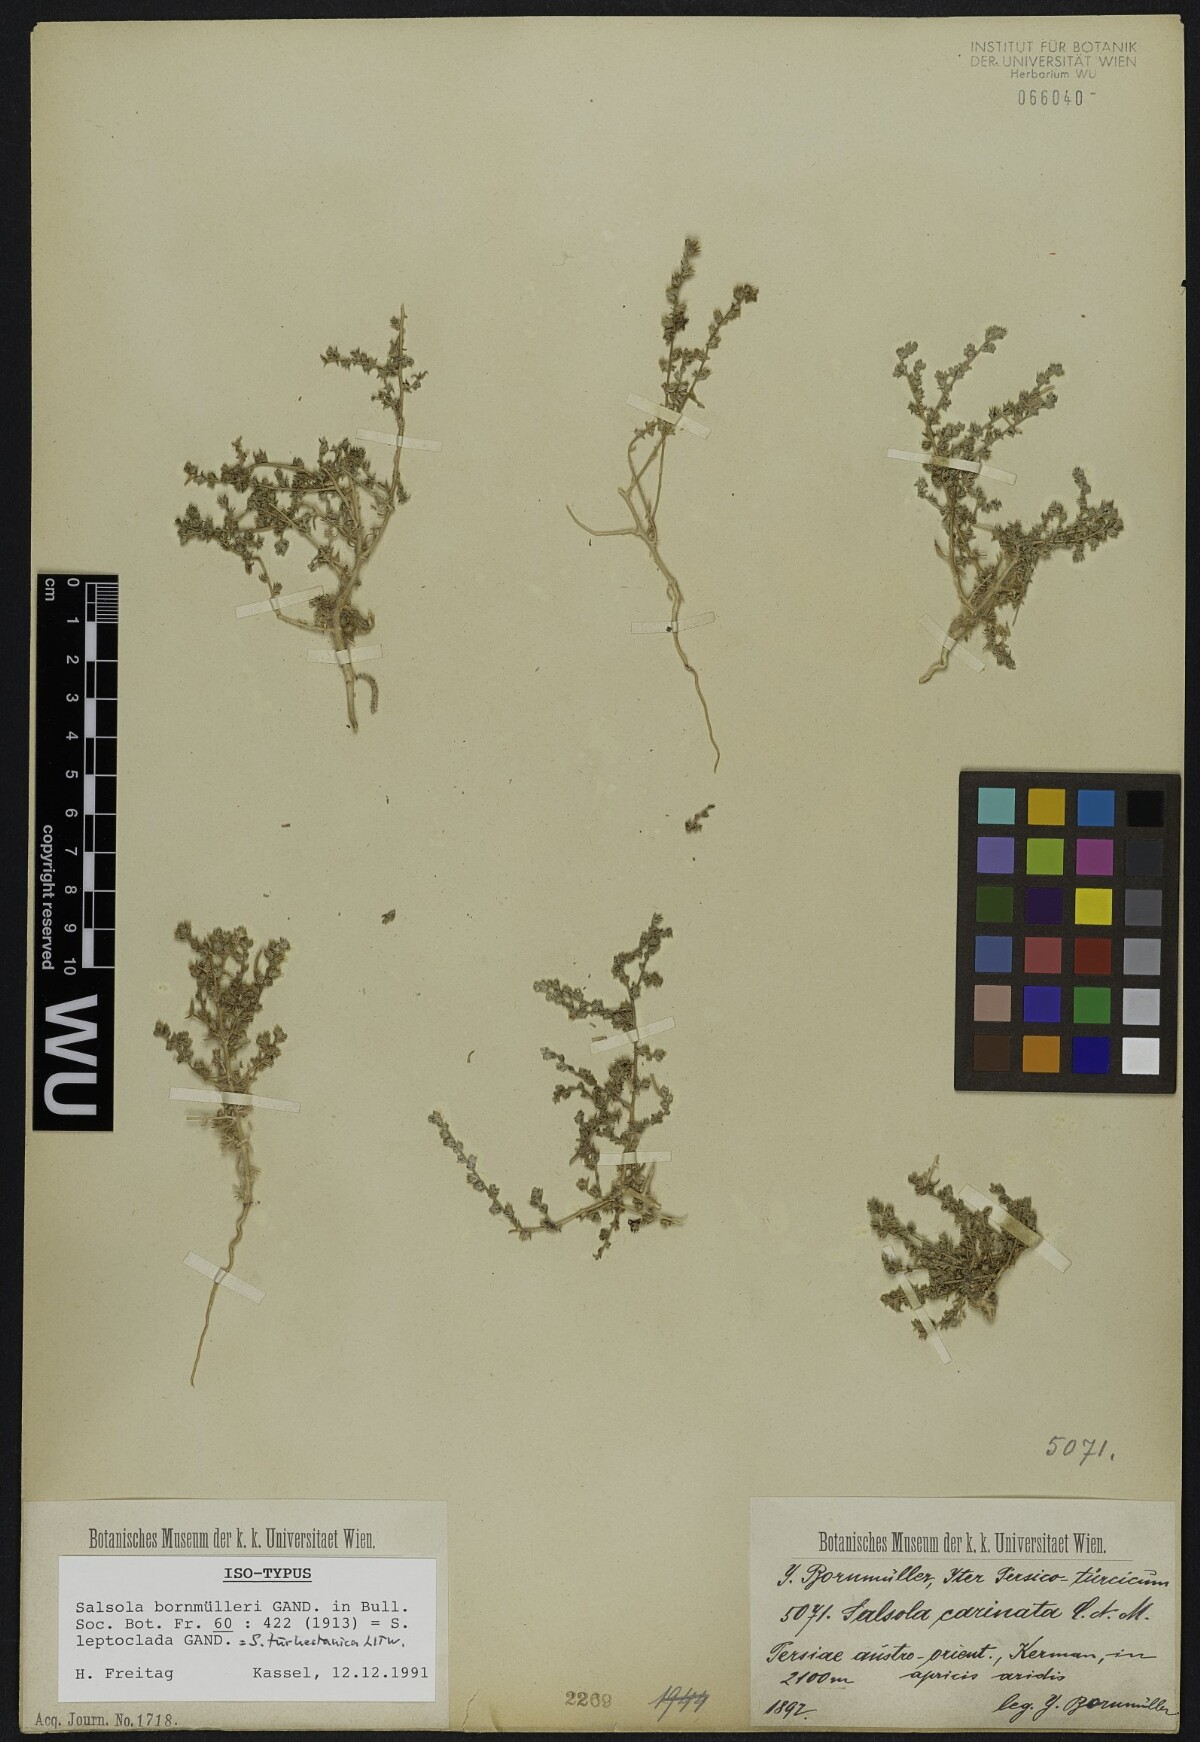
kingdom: Plantae
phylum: Tracheophyta
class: Magnoliopsida
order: Caryophyllales
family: Amaranthaceae
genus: Caroxylon
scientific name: Caroxylon turkestanicum
